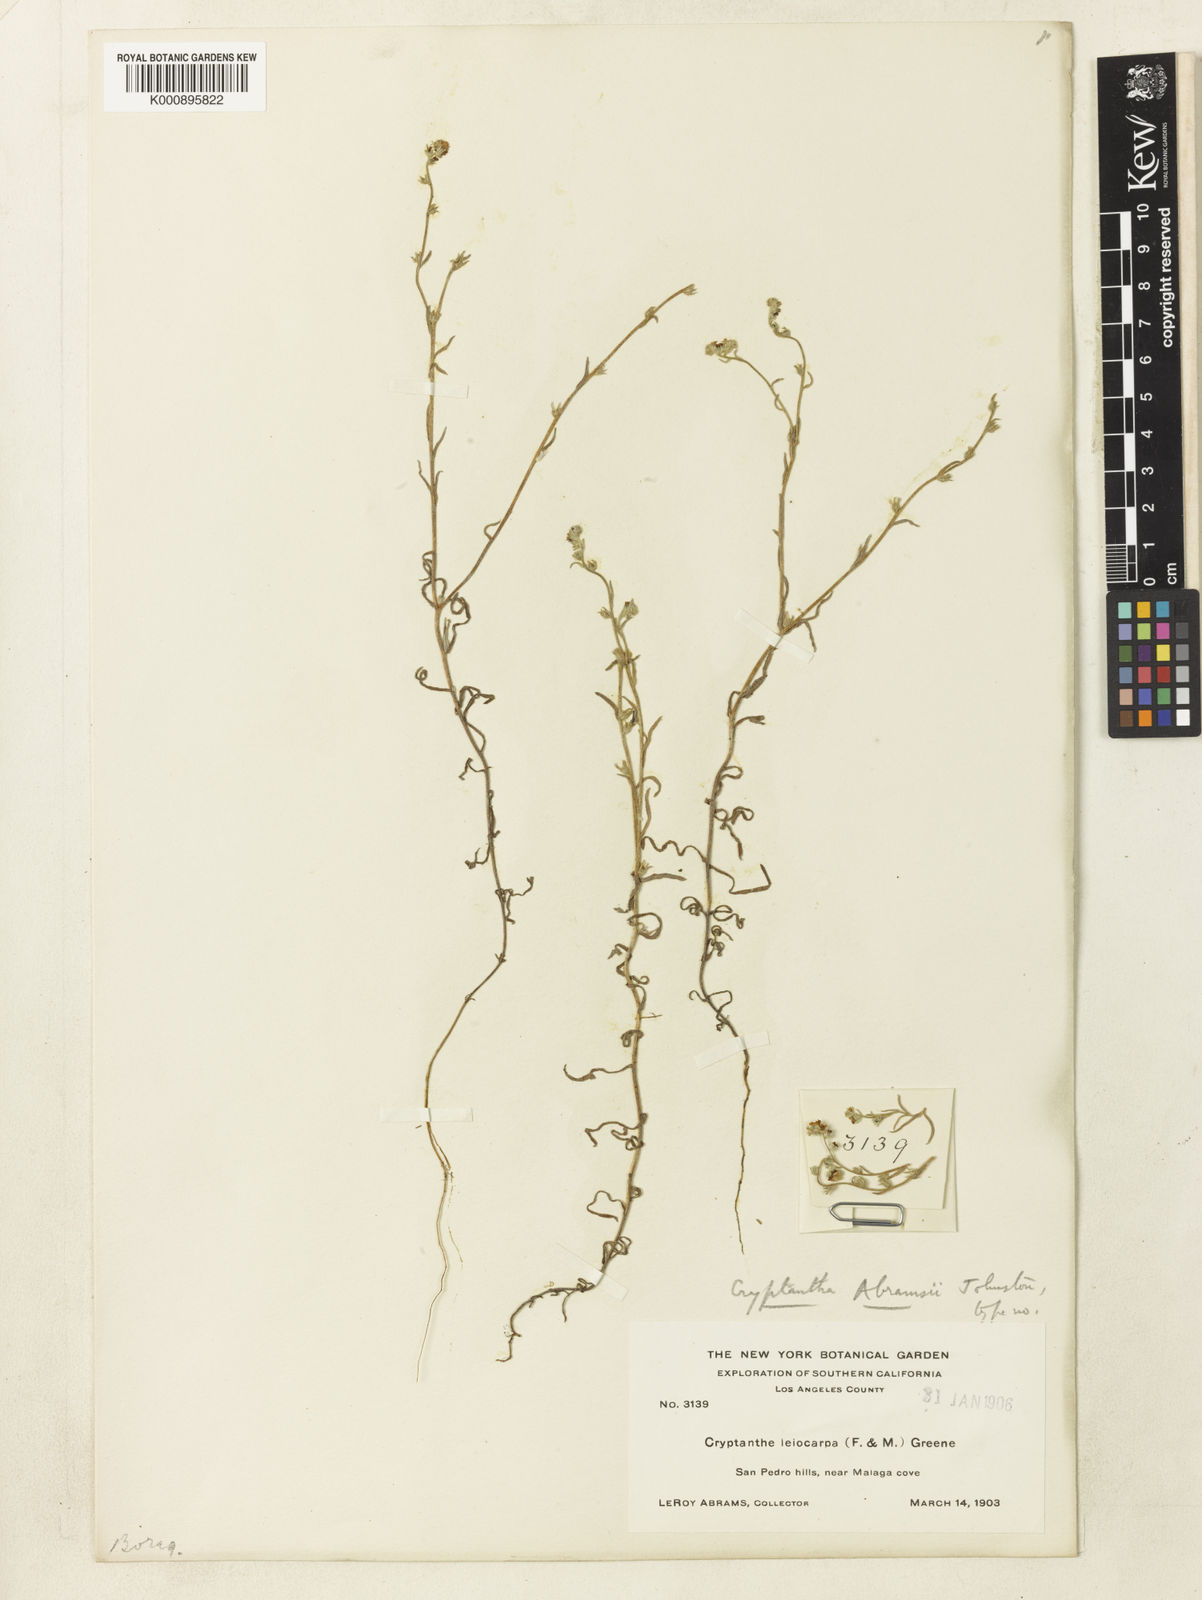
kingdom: Plantae
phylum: Tracheophyta
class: Magnoliopsida
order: Boraginales
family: Boraginaceae
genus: Cryptantha
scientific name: Cryptantha clevelandii
